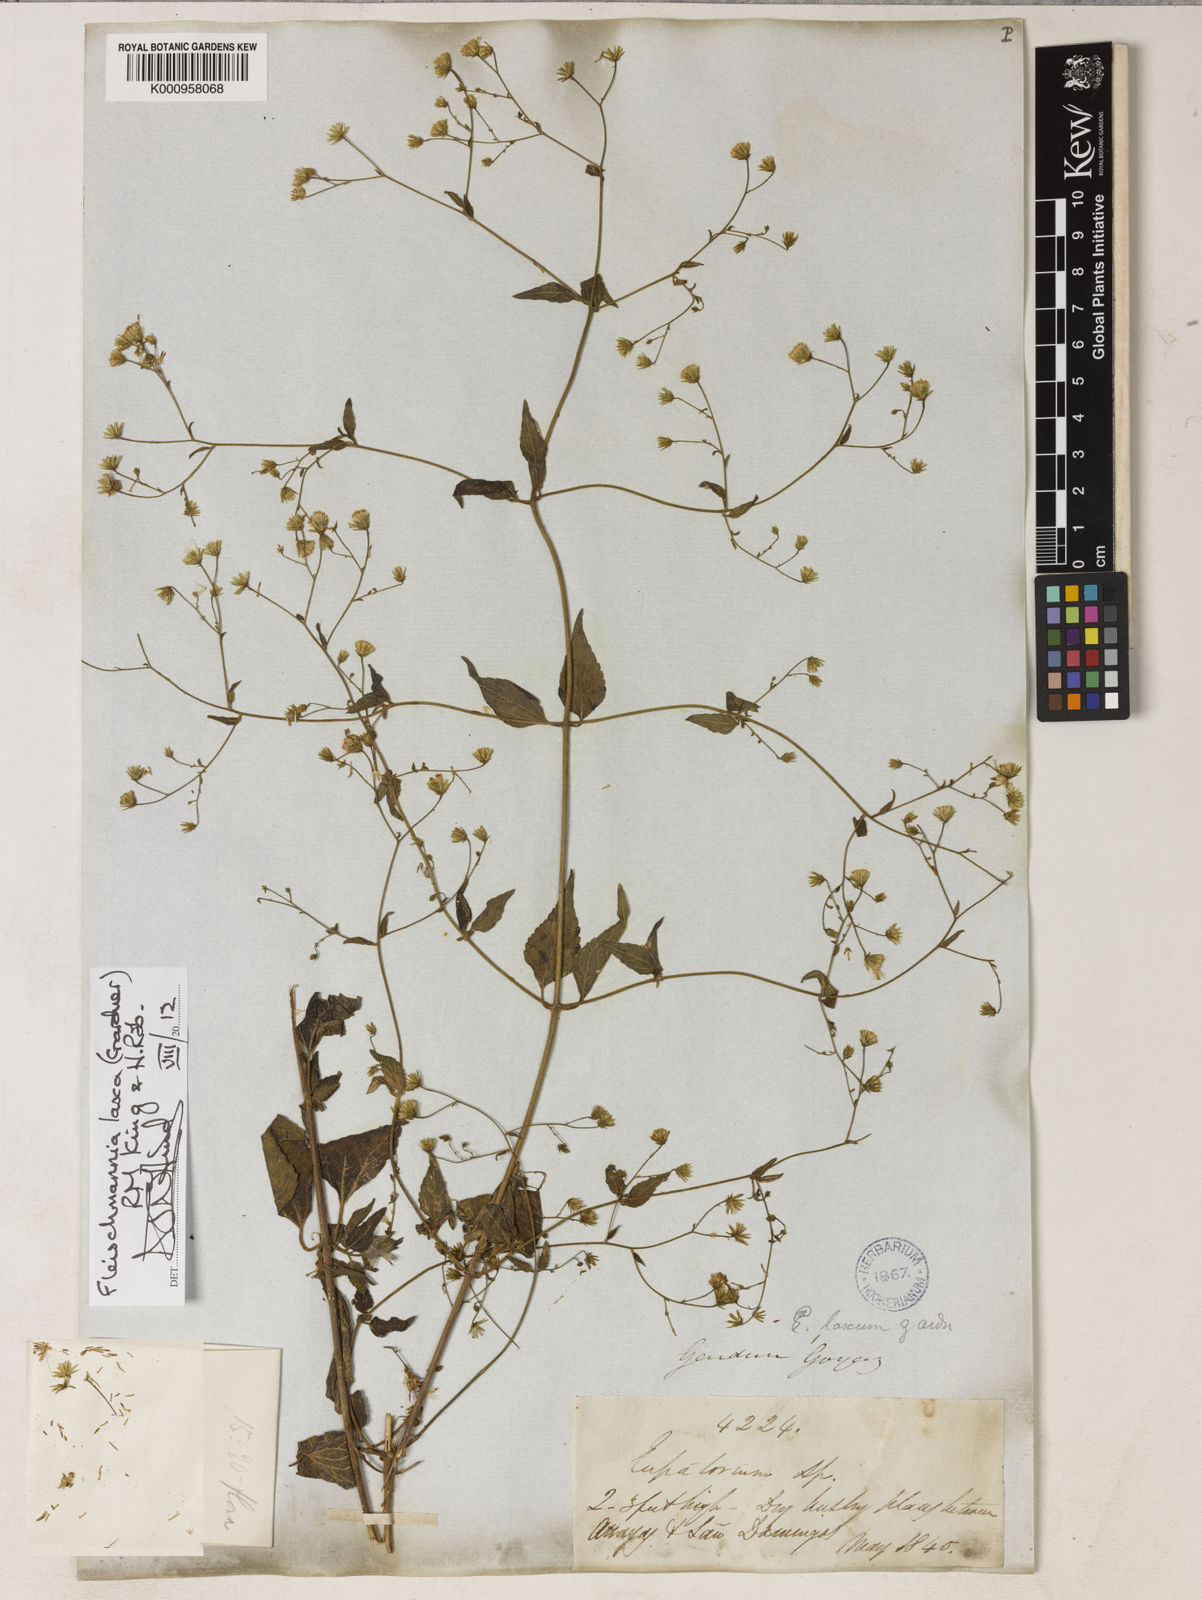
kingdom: Plantae
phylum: Tracheophyta
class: Magnoliopsida
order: Asterales
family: Asteraceae
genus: Fleischmannia
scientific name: Fleischmannia laxa
